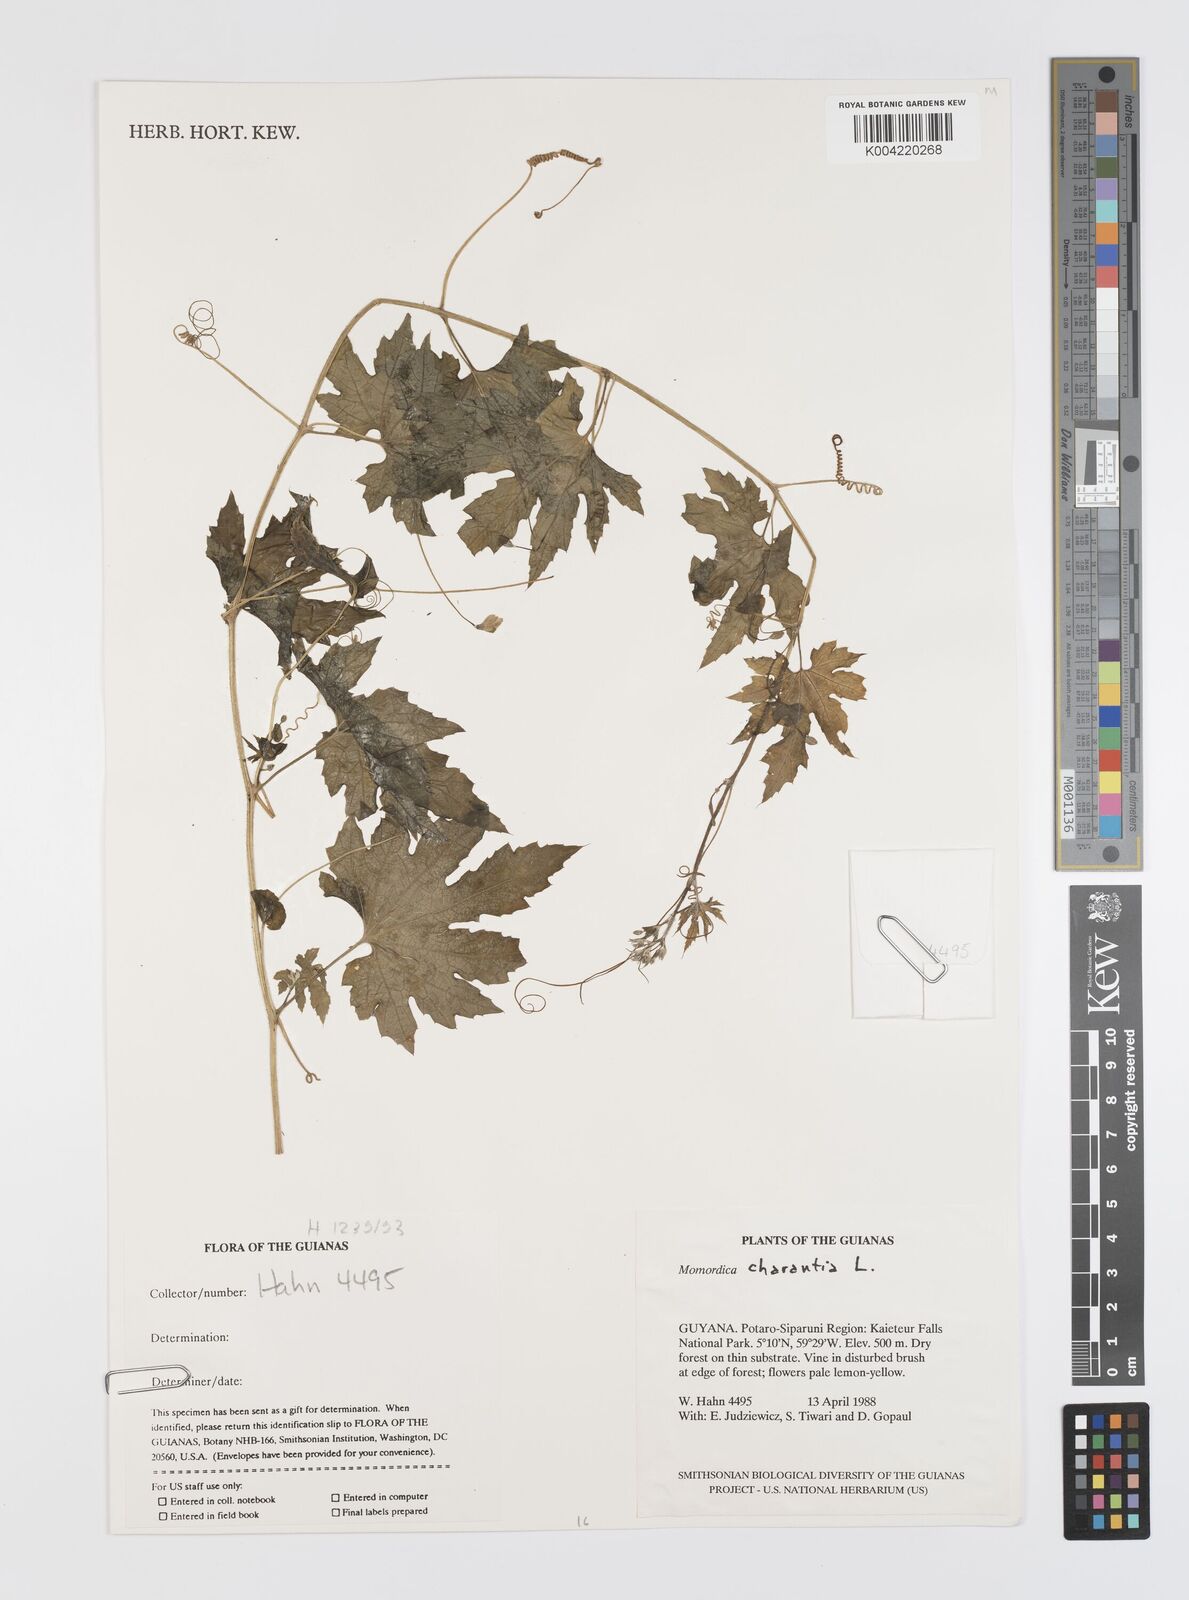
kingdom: Plantae
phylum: Tracheophyta
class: Magnoliopsida
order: Cucurbitales
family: Cucurbitaceae
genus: Momordica
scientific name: Momordica charantia
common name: Balsampear
